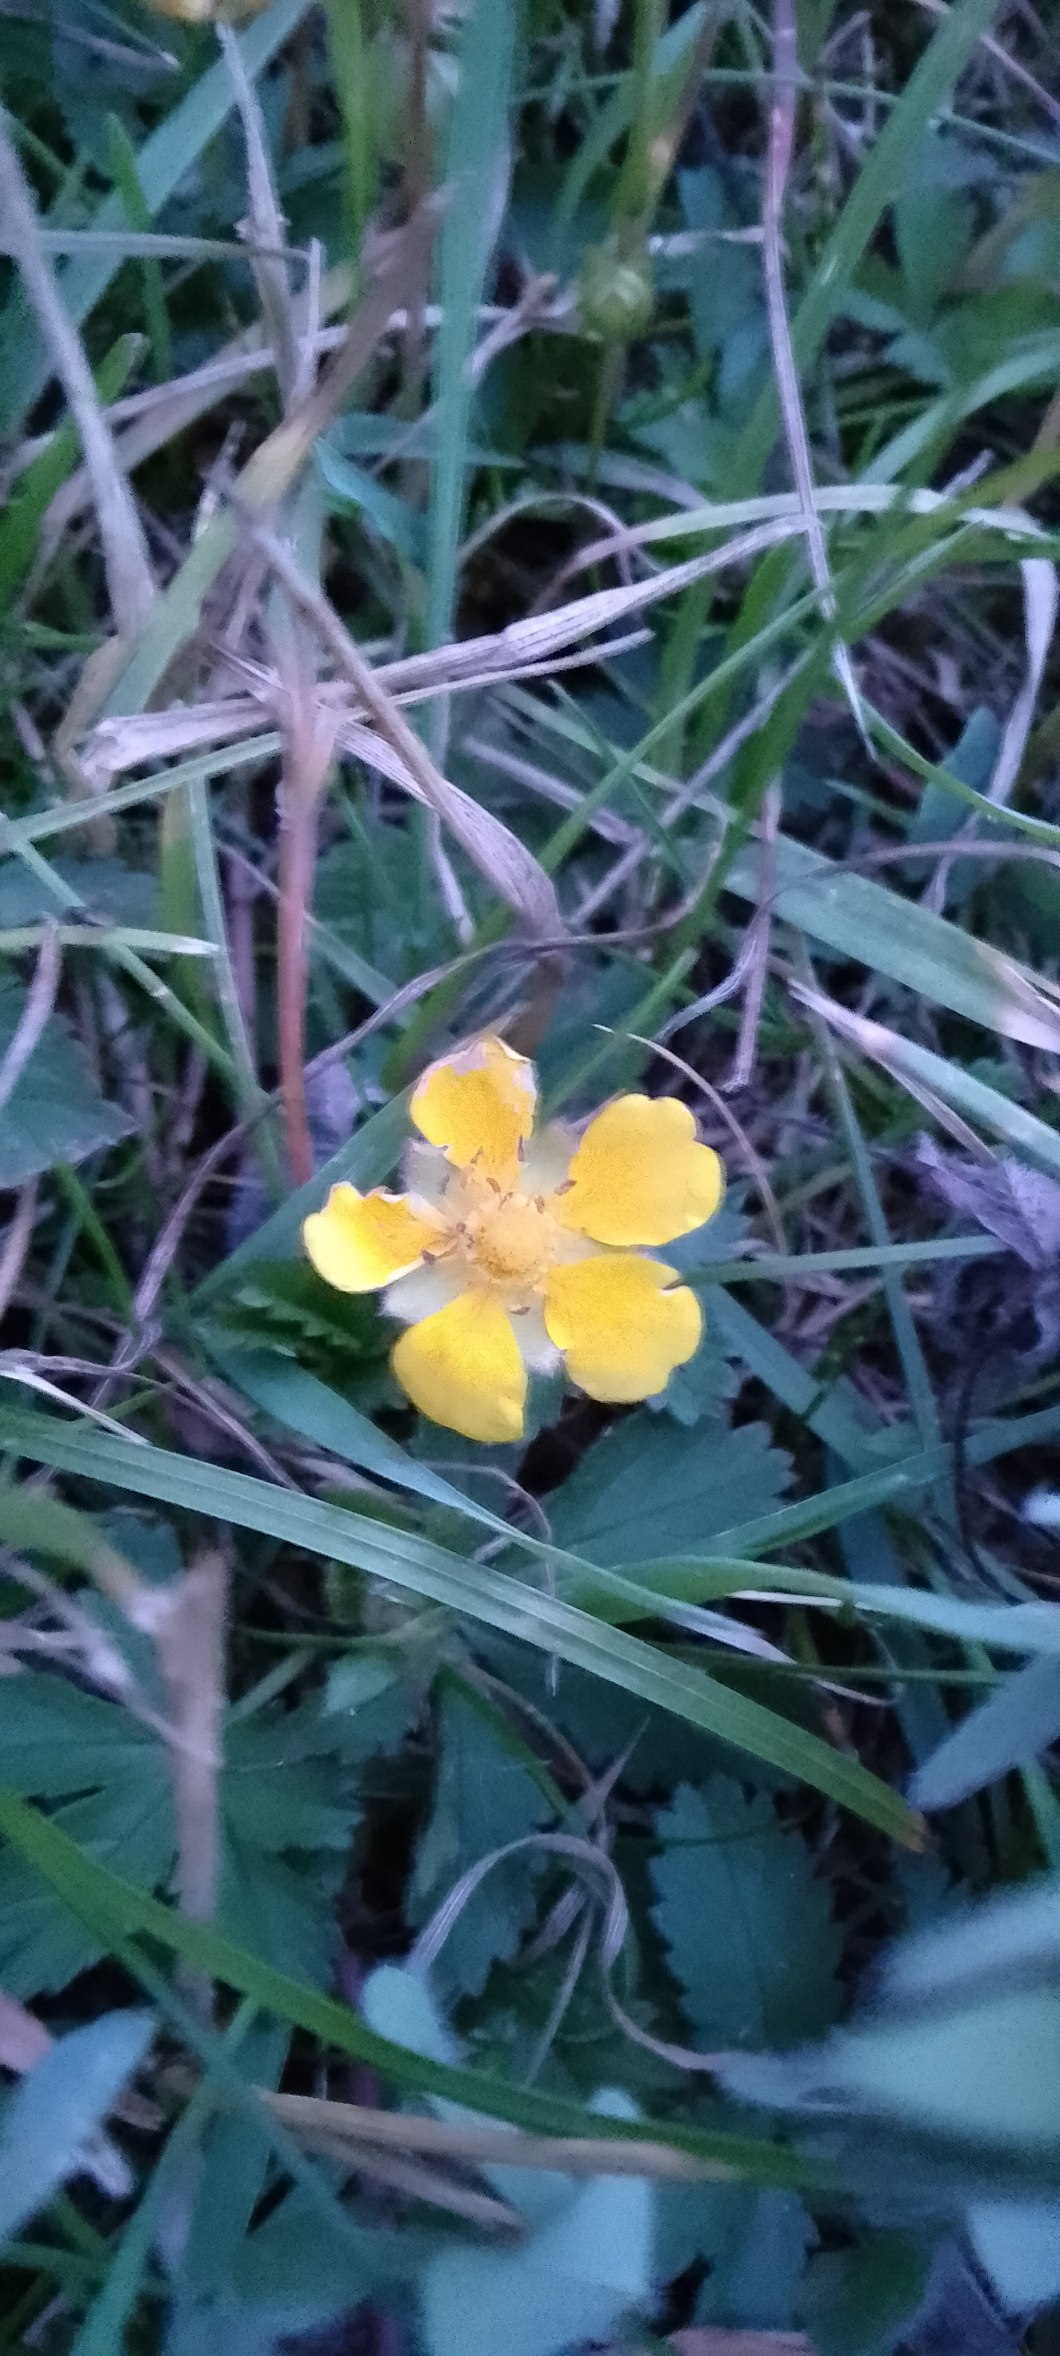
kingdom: Plantae
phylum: Tracheophyta
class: Magnoliopsida
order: Rosales
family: Rosaceae
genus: Potentilla
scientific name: Potentilla
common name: Potentilslægten
